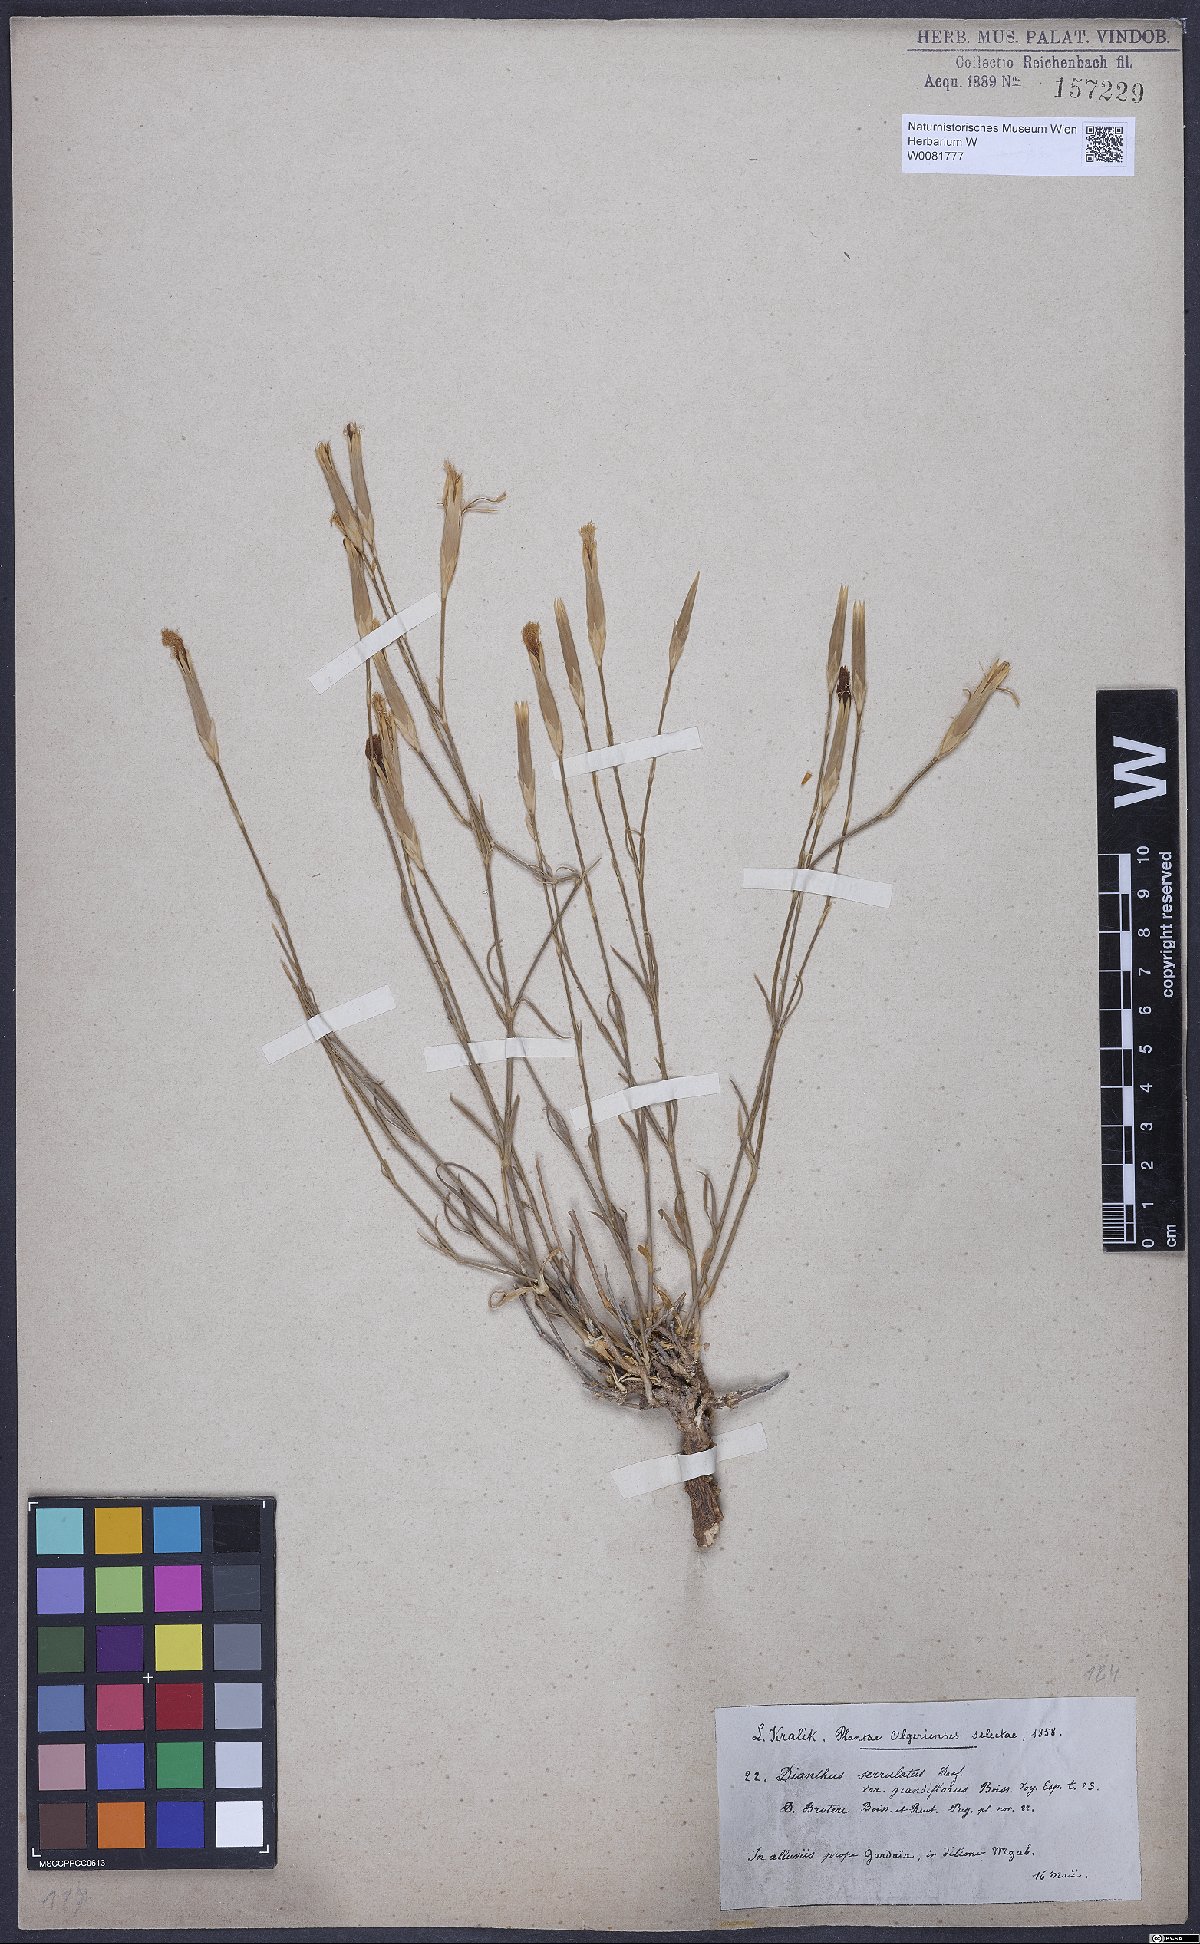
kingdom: Plantae
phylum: Tracheophyta
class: Magnoliopsida
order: Caryophyllales
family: Caryophyllaceae
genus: Dianthus
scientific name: Dianthus broteri
